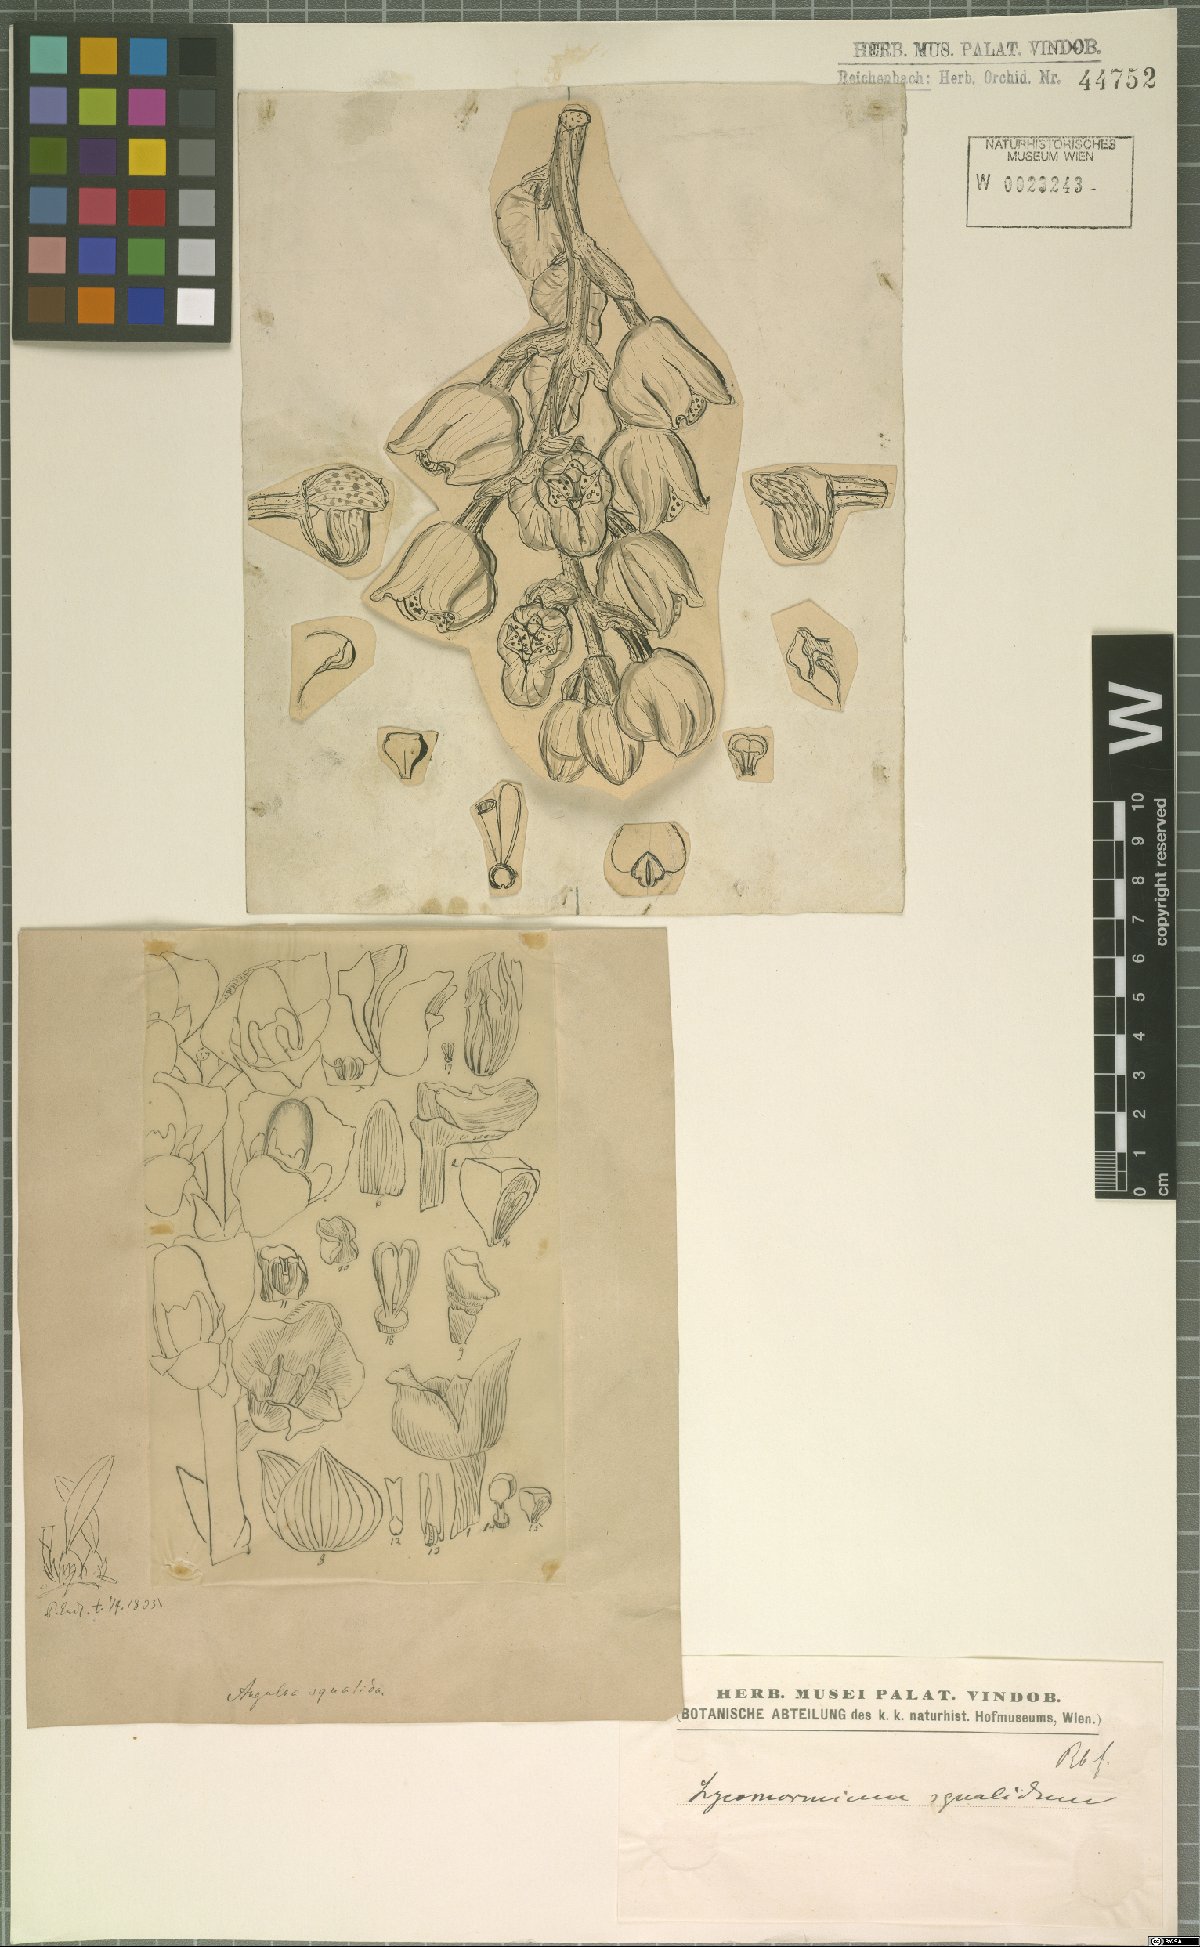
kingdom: Plantae
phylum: Tracheophyta
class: Liliopsida
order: Asparagales
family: Orchidaceae
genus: Lycomormium
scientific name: Lycomormium squalidum
